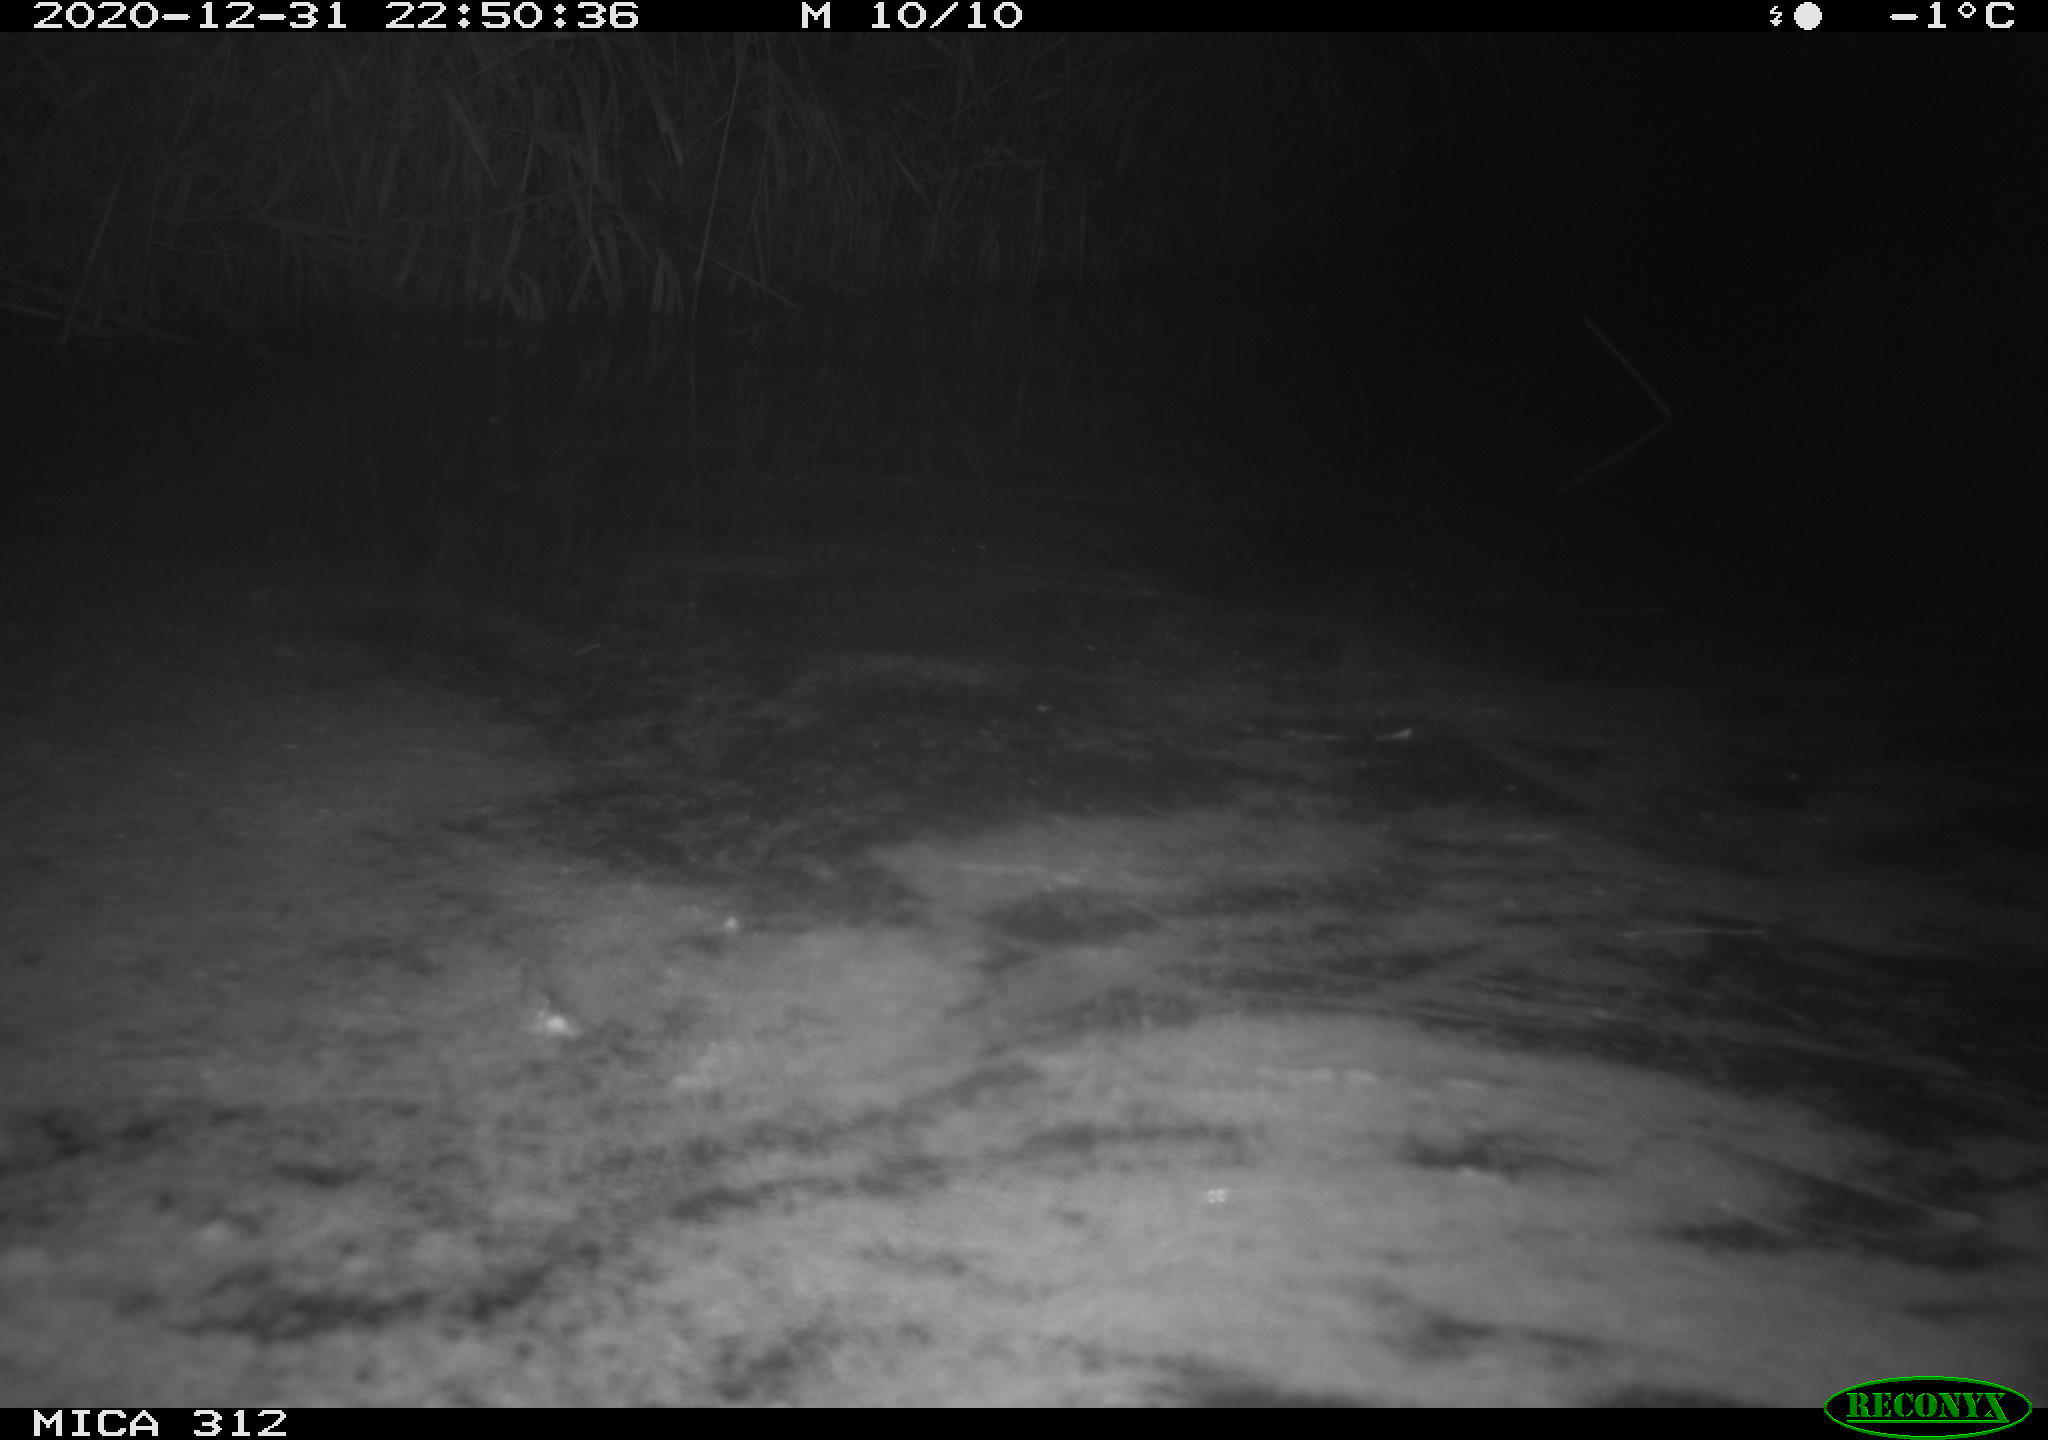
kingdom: Animalia
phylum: Chordata
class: Aves
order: Gruiformes
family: Rallidae
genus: Gallinula
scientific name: Gallinula chloropus
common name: Common moorhen
